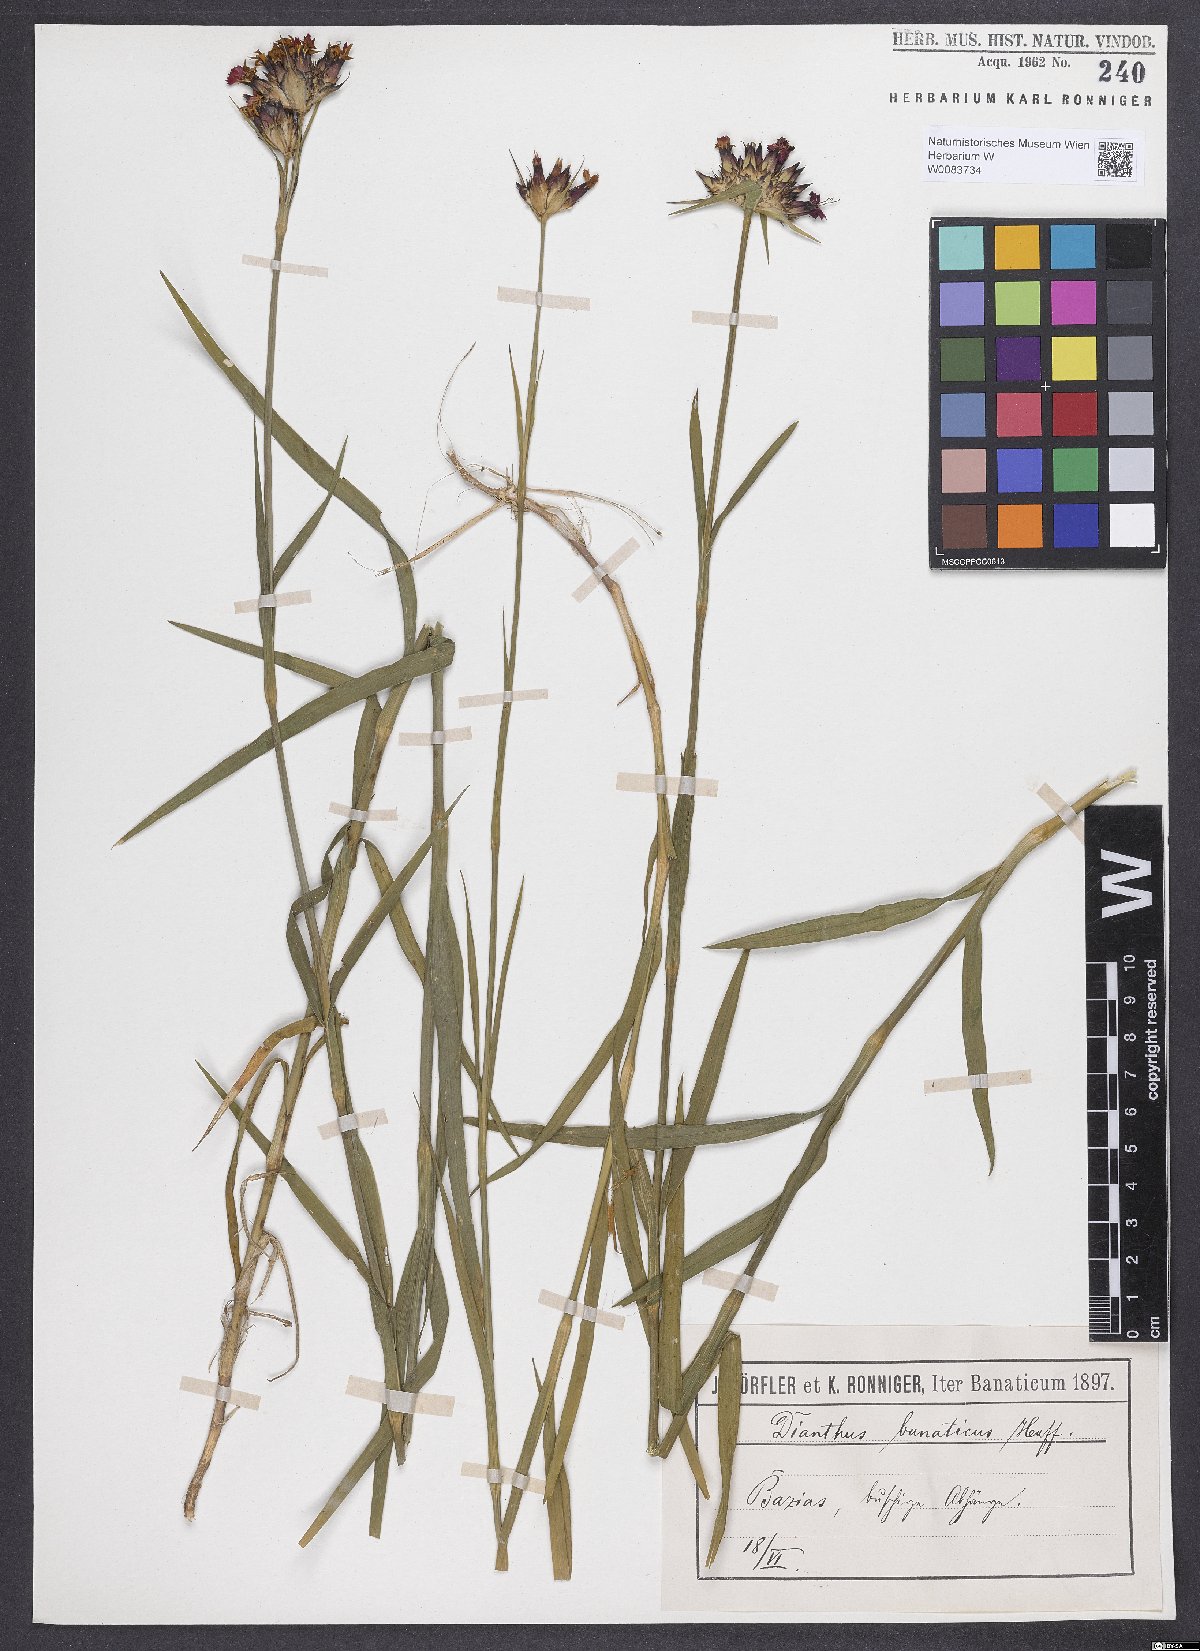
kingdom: Plantae
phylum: Tracheophyta
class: Magnoliopsida
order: Caryophyllales
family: Caryophyllaceae
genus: Dianthus
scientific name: Dianthus giganteus
